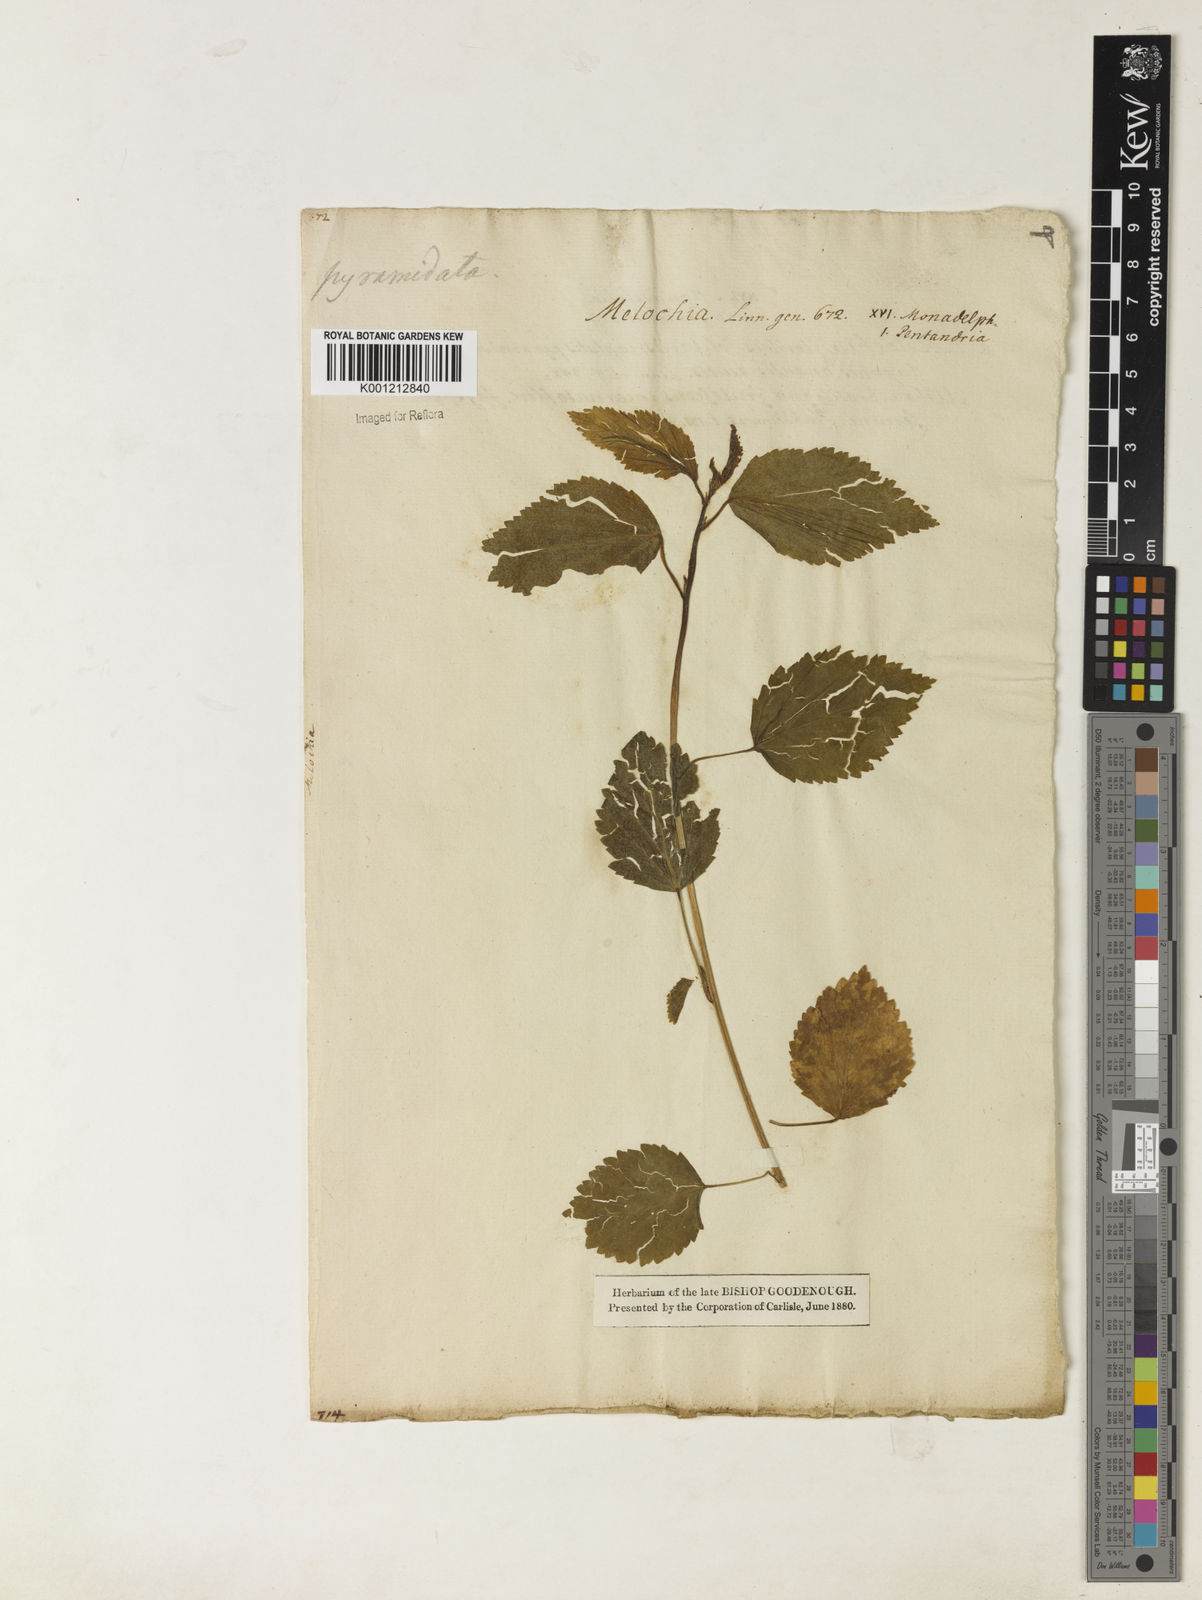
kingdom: Plantae
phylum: Tracheophyta
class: Magnoliopsida
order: Malvales
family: Malvaceae
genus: Melochia
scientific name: Melochia pyramidata
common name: Pyramidflower
